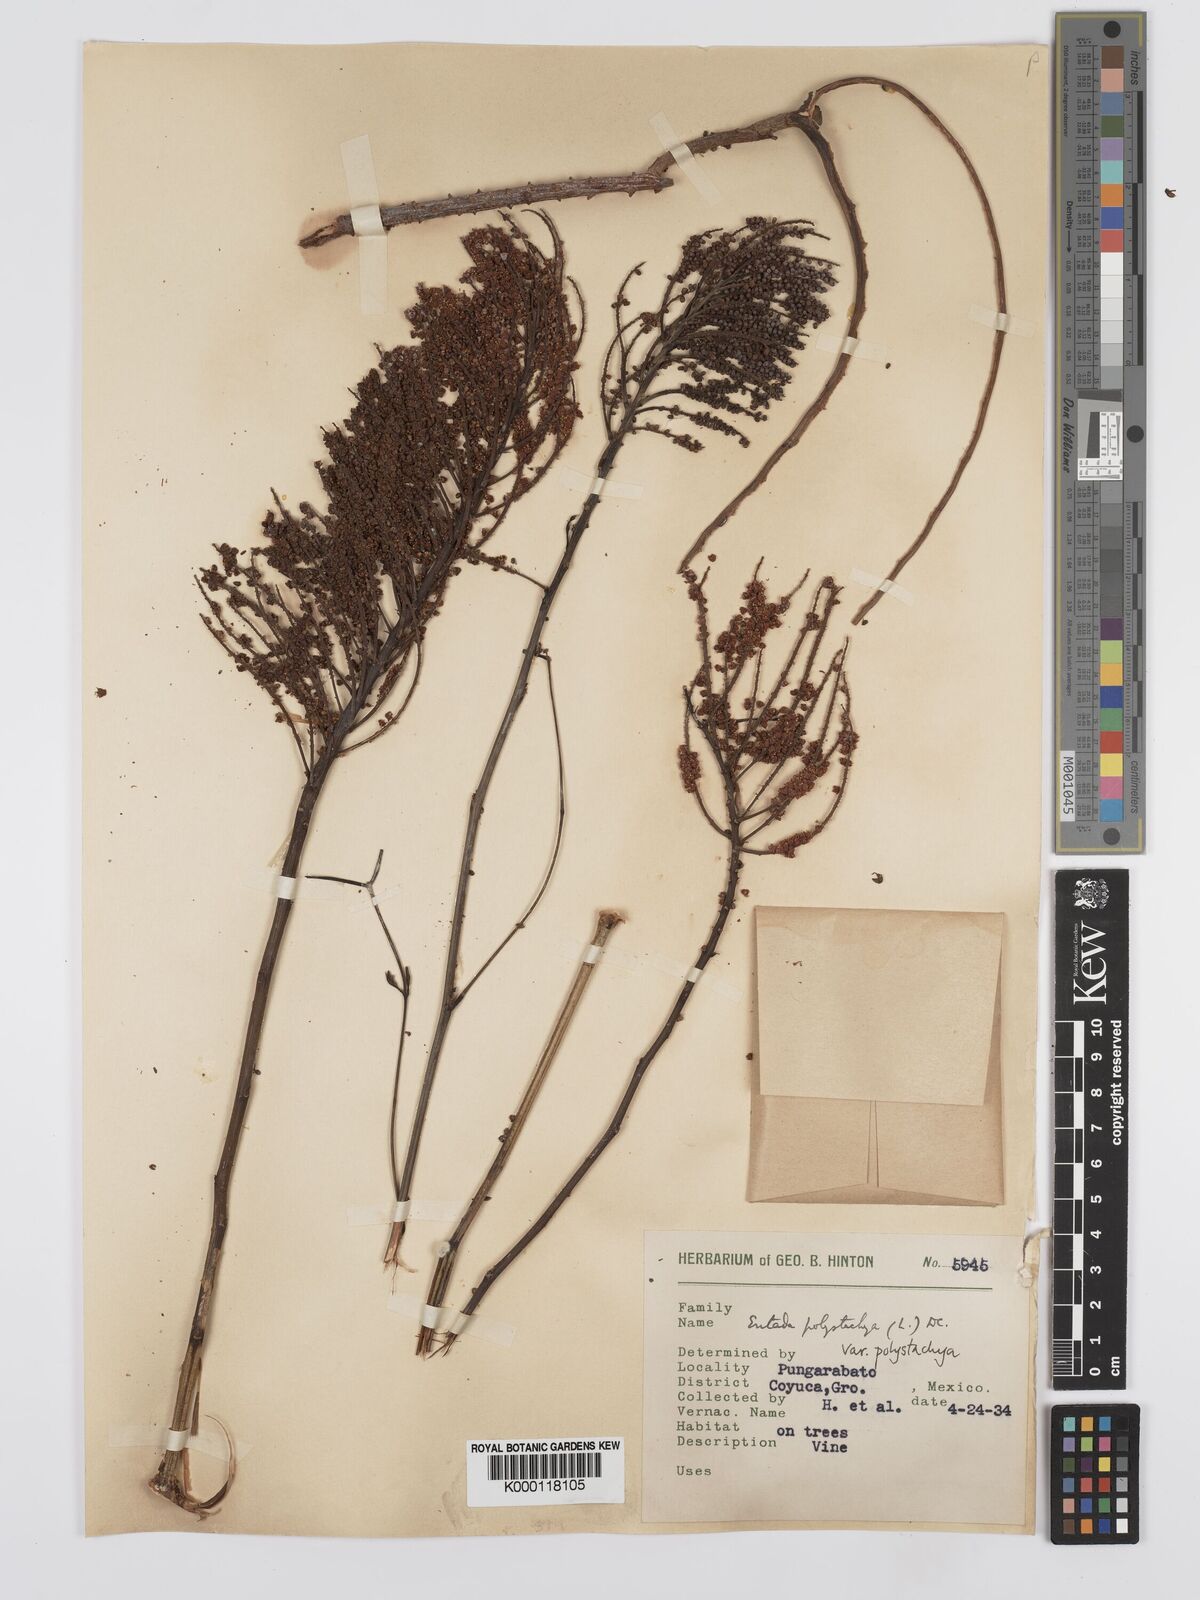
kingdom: Plantae
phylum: Tracheophyta
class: Magnoliopsida
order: Fabales
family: Fabaceae
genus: Entada
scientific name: Entada polystachya
